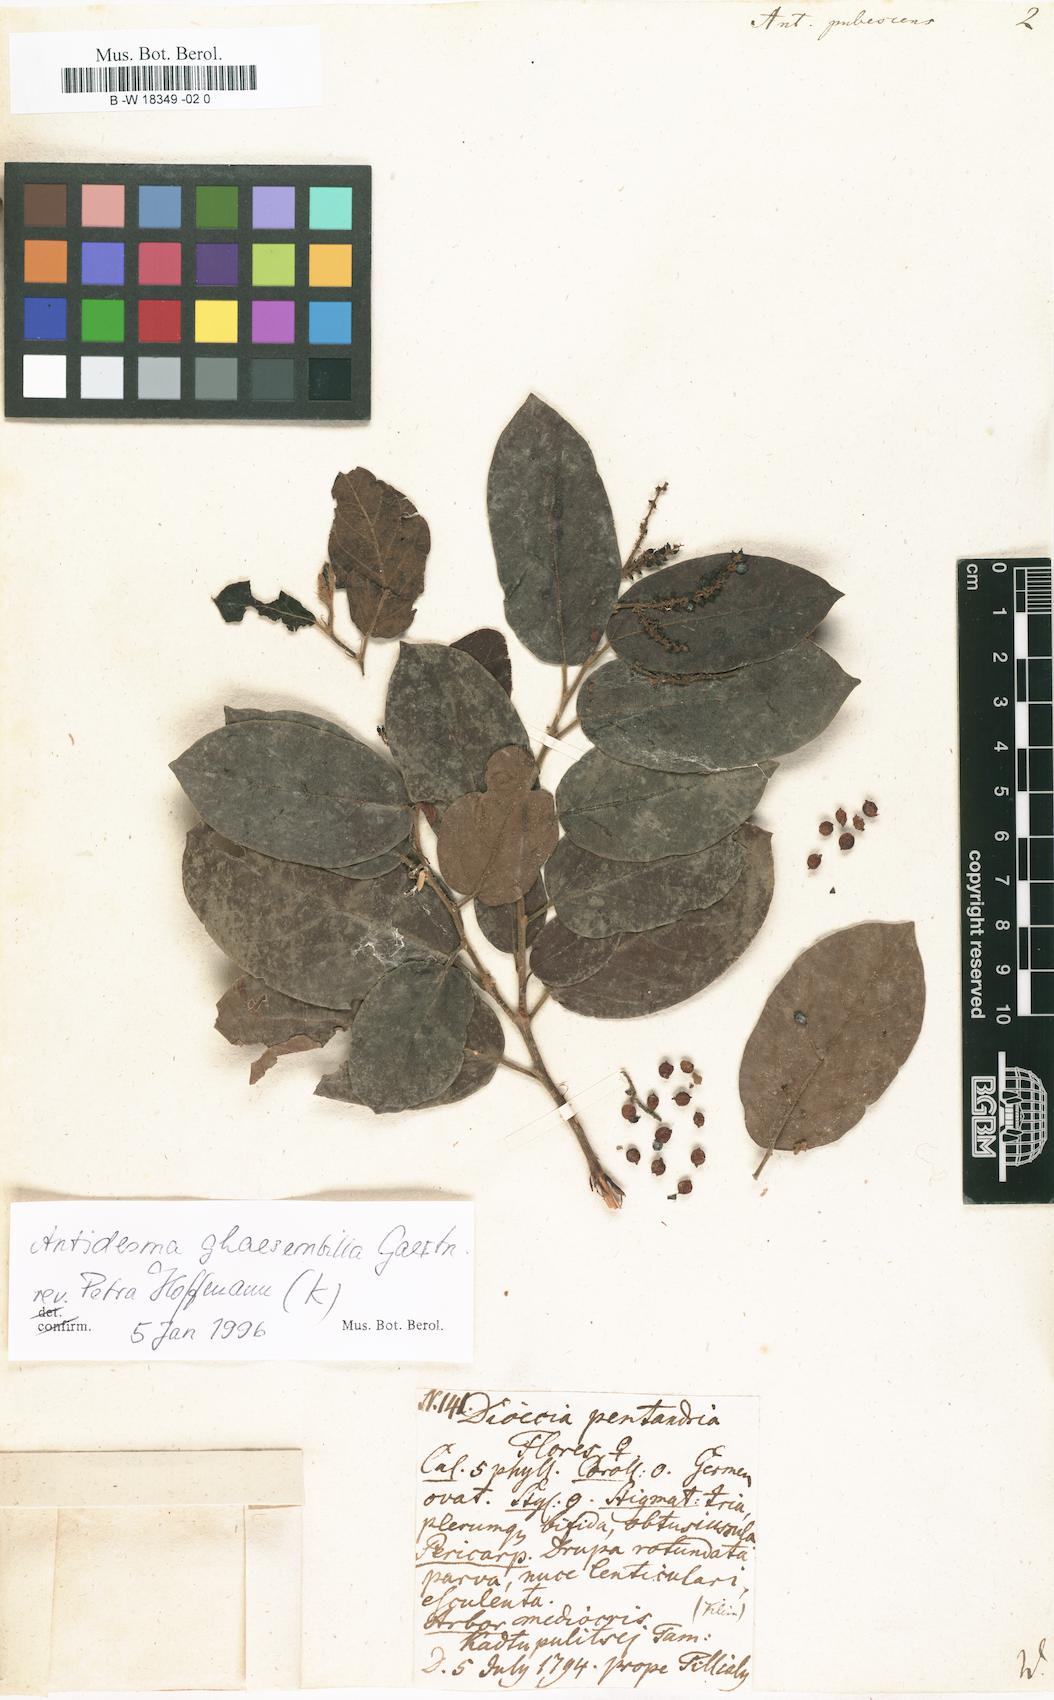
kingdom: Plantae
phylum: Tracheophyta
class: Magnoliopsida
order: Malpighiales
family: Phyllanthaceae
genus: Antidesma
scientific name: Antidesma
